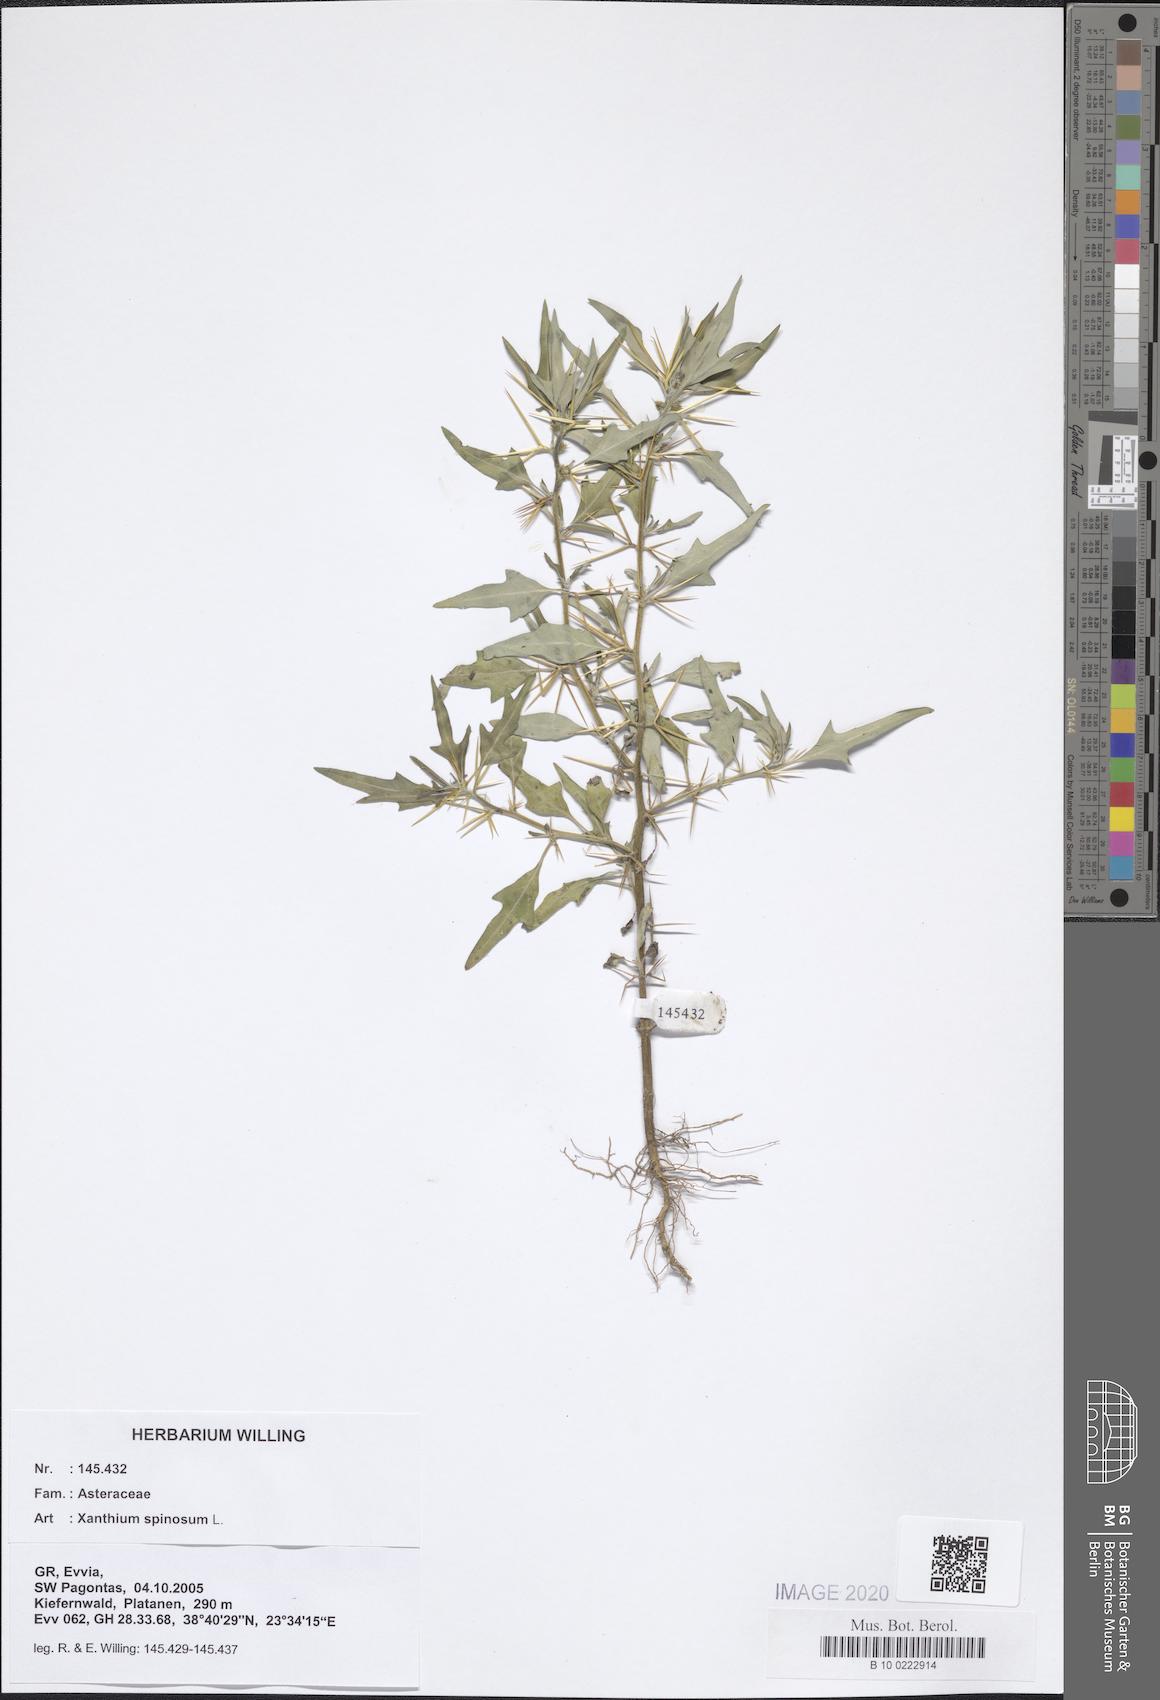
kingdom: Plantae
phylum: Tracheophyta
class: Magnoliopsida
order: Asterales
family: Asteraceae
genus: Xanthium
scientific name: Xanthium spinosum
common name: Spiny cocklebur
